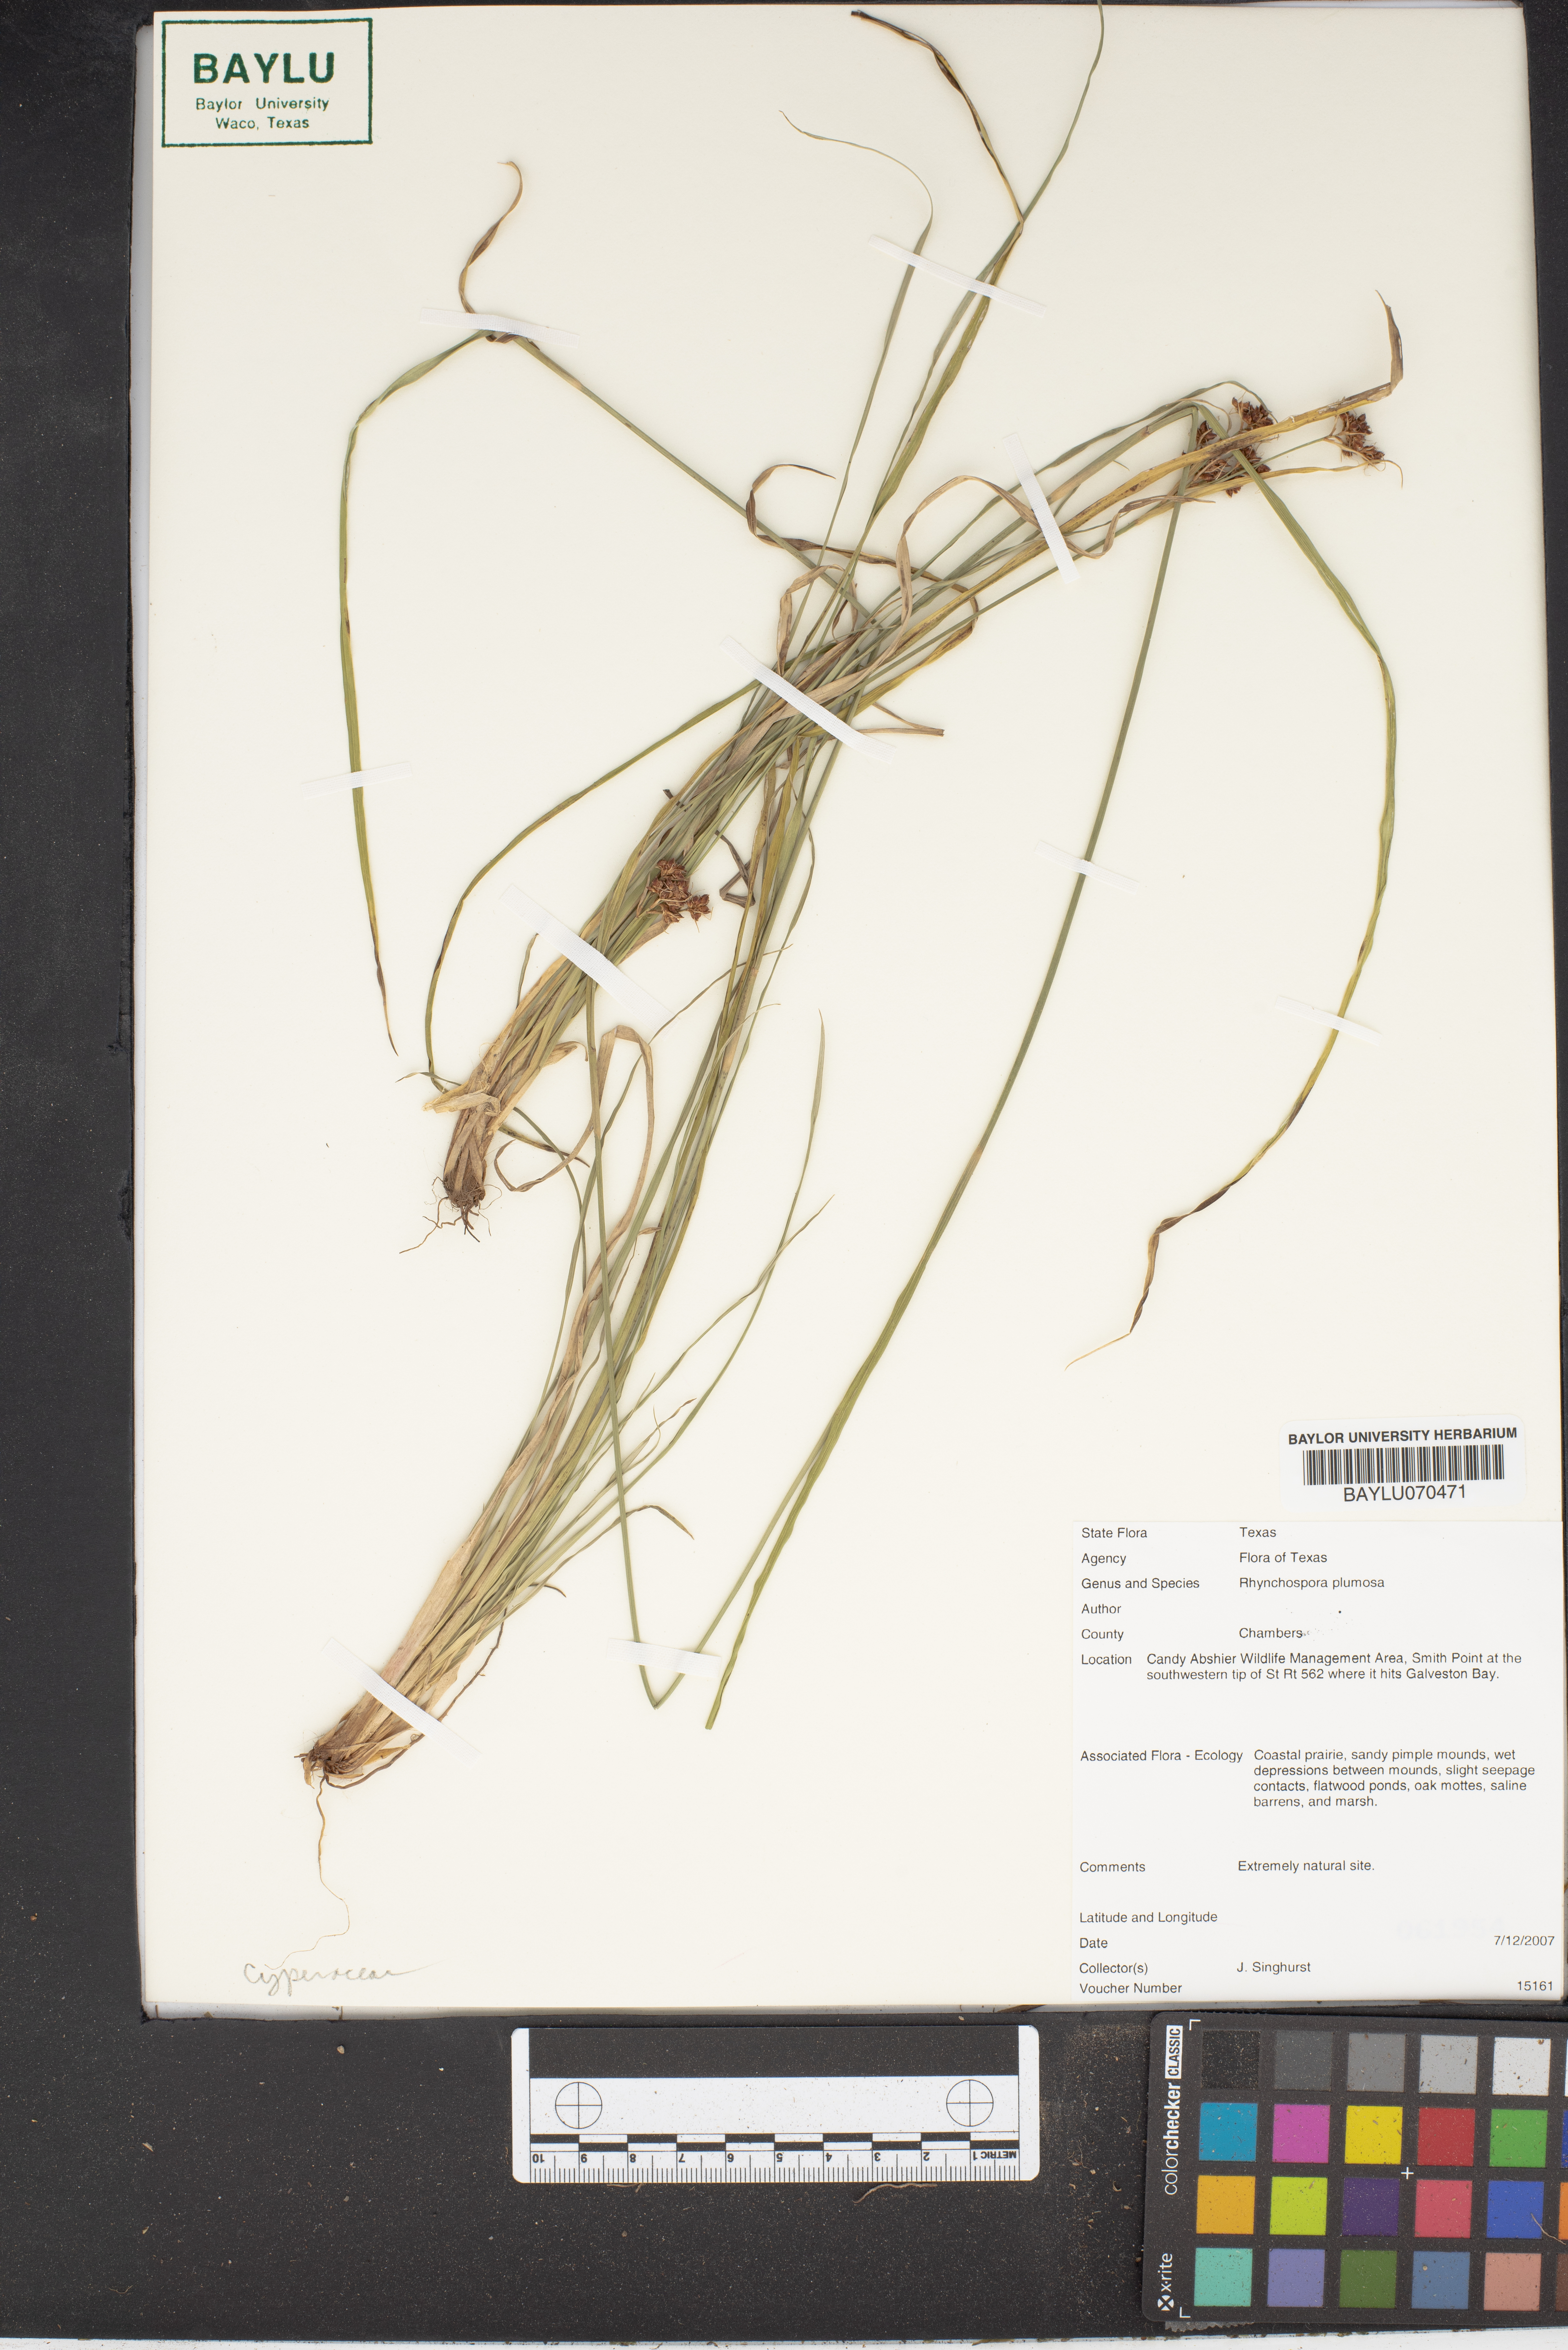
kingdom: Plantae
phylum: Tracheophyta
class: Liliopsida
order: Poales
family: Cyperaceae
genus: Rhynchospora
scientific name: Rhynchospora plumosa
